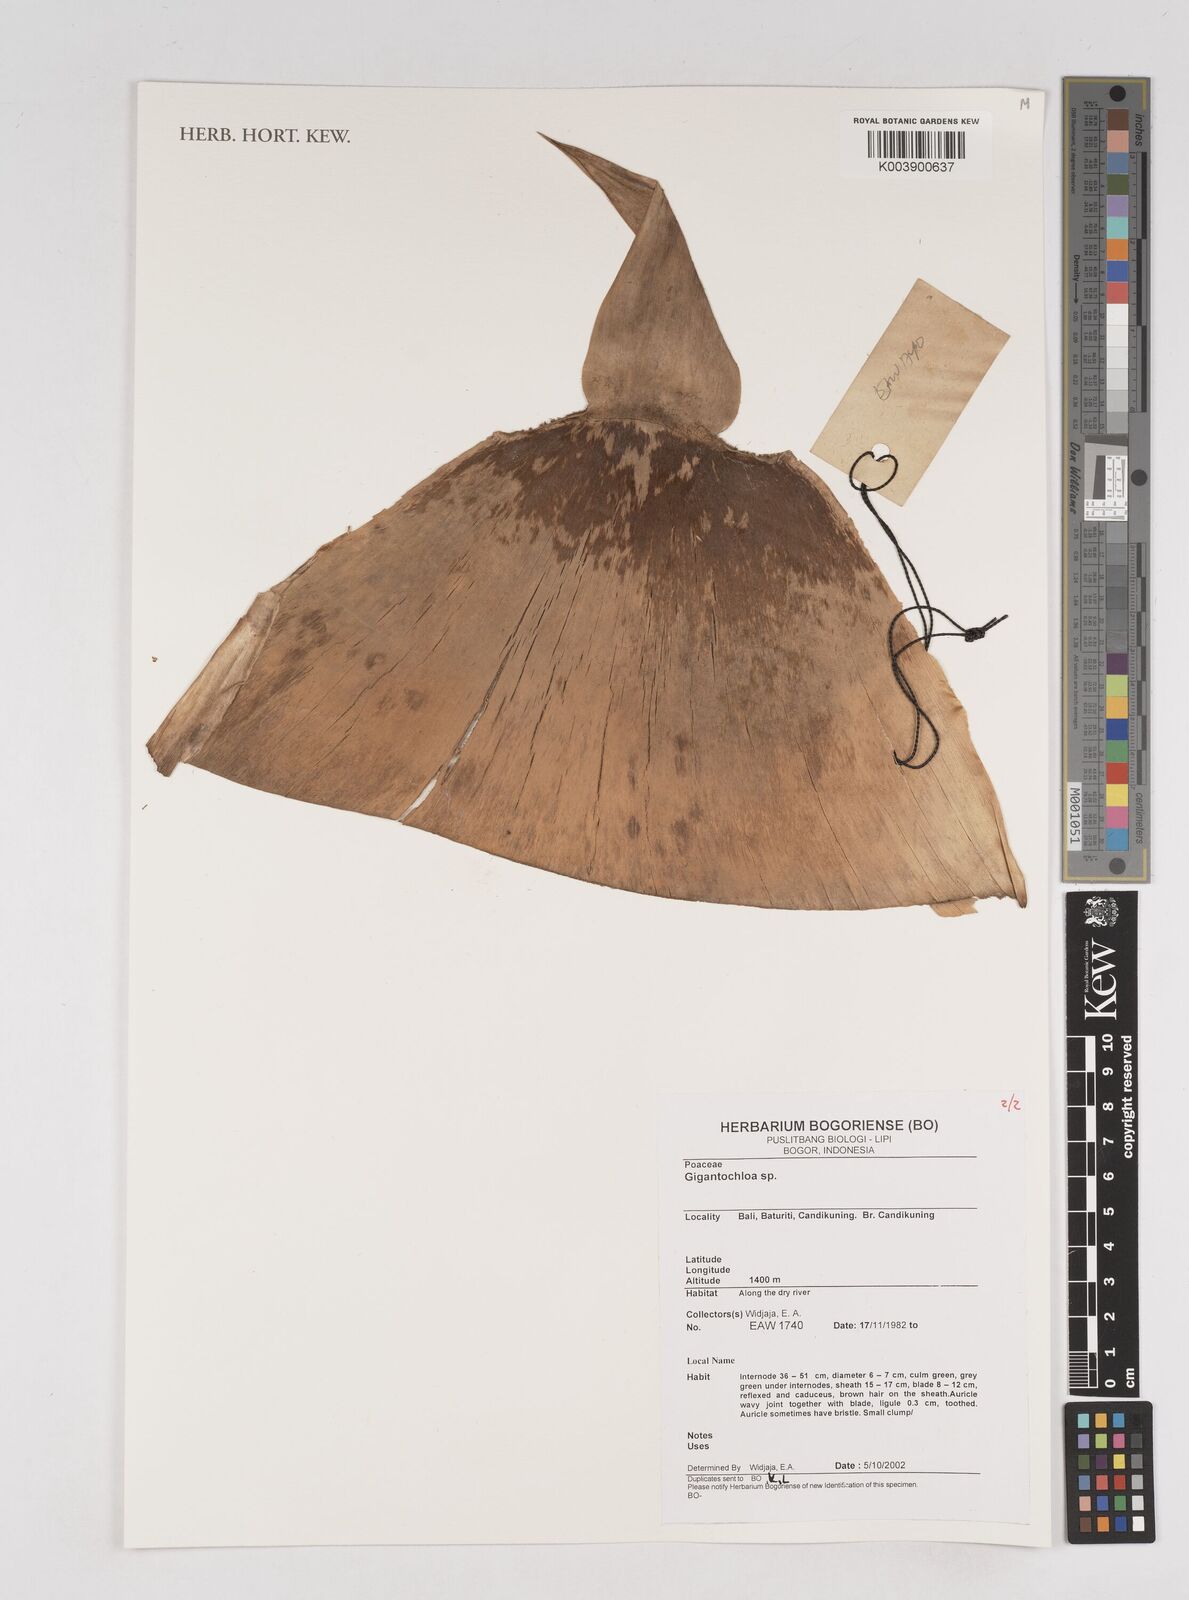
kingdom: Plantae
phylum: Tracheophyta
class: Liliopsida
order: Poales
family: Poaceae
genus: Gigantochloa
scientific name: Gigantochloa
